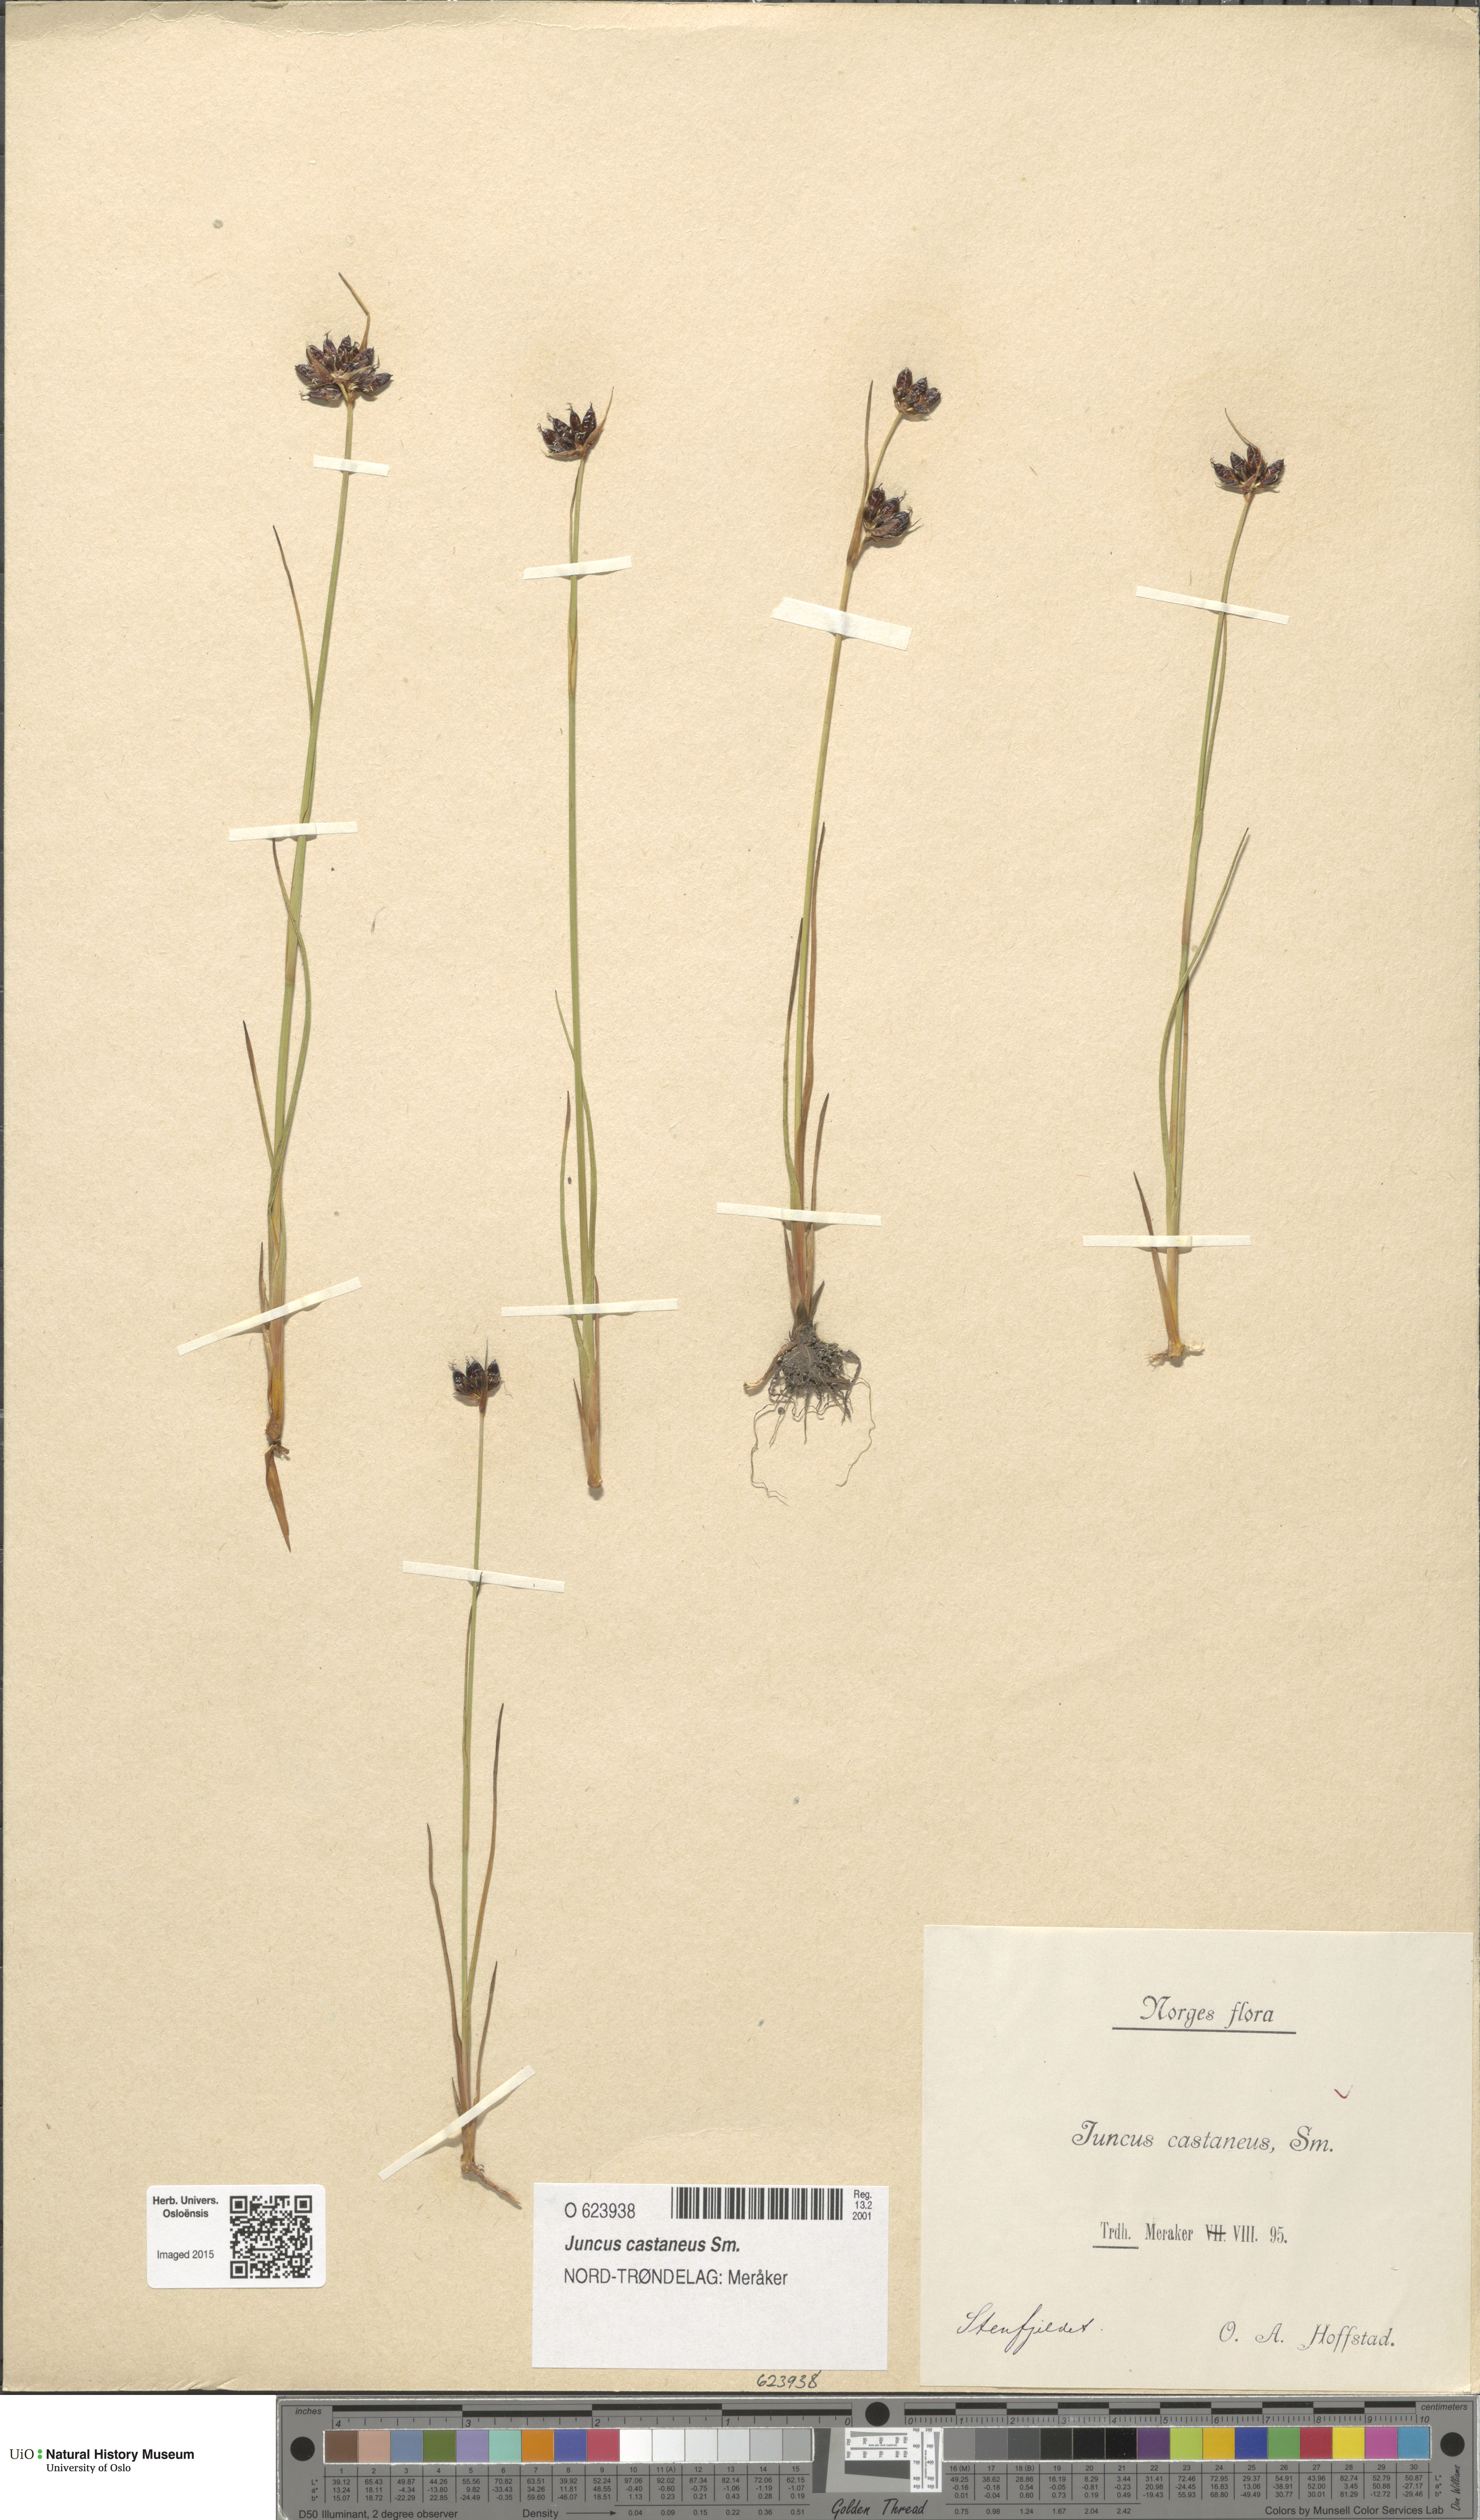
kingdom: Plantae
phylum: Tracheophyta
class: Liliopsida
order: Poales
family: Juncaceae
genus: Juncus
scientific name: Juncus castaneus
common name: Chestnut rush
